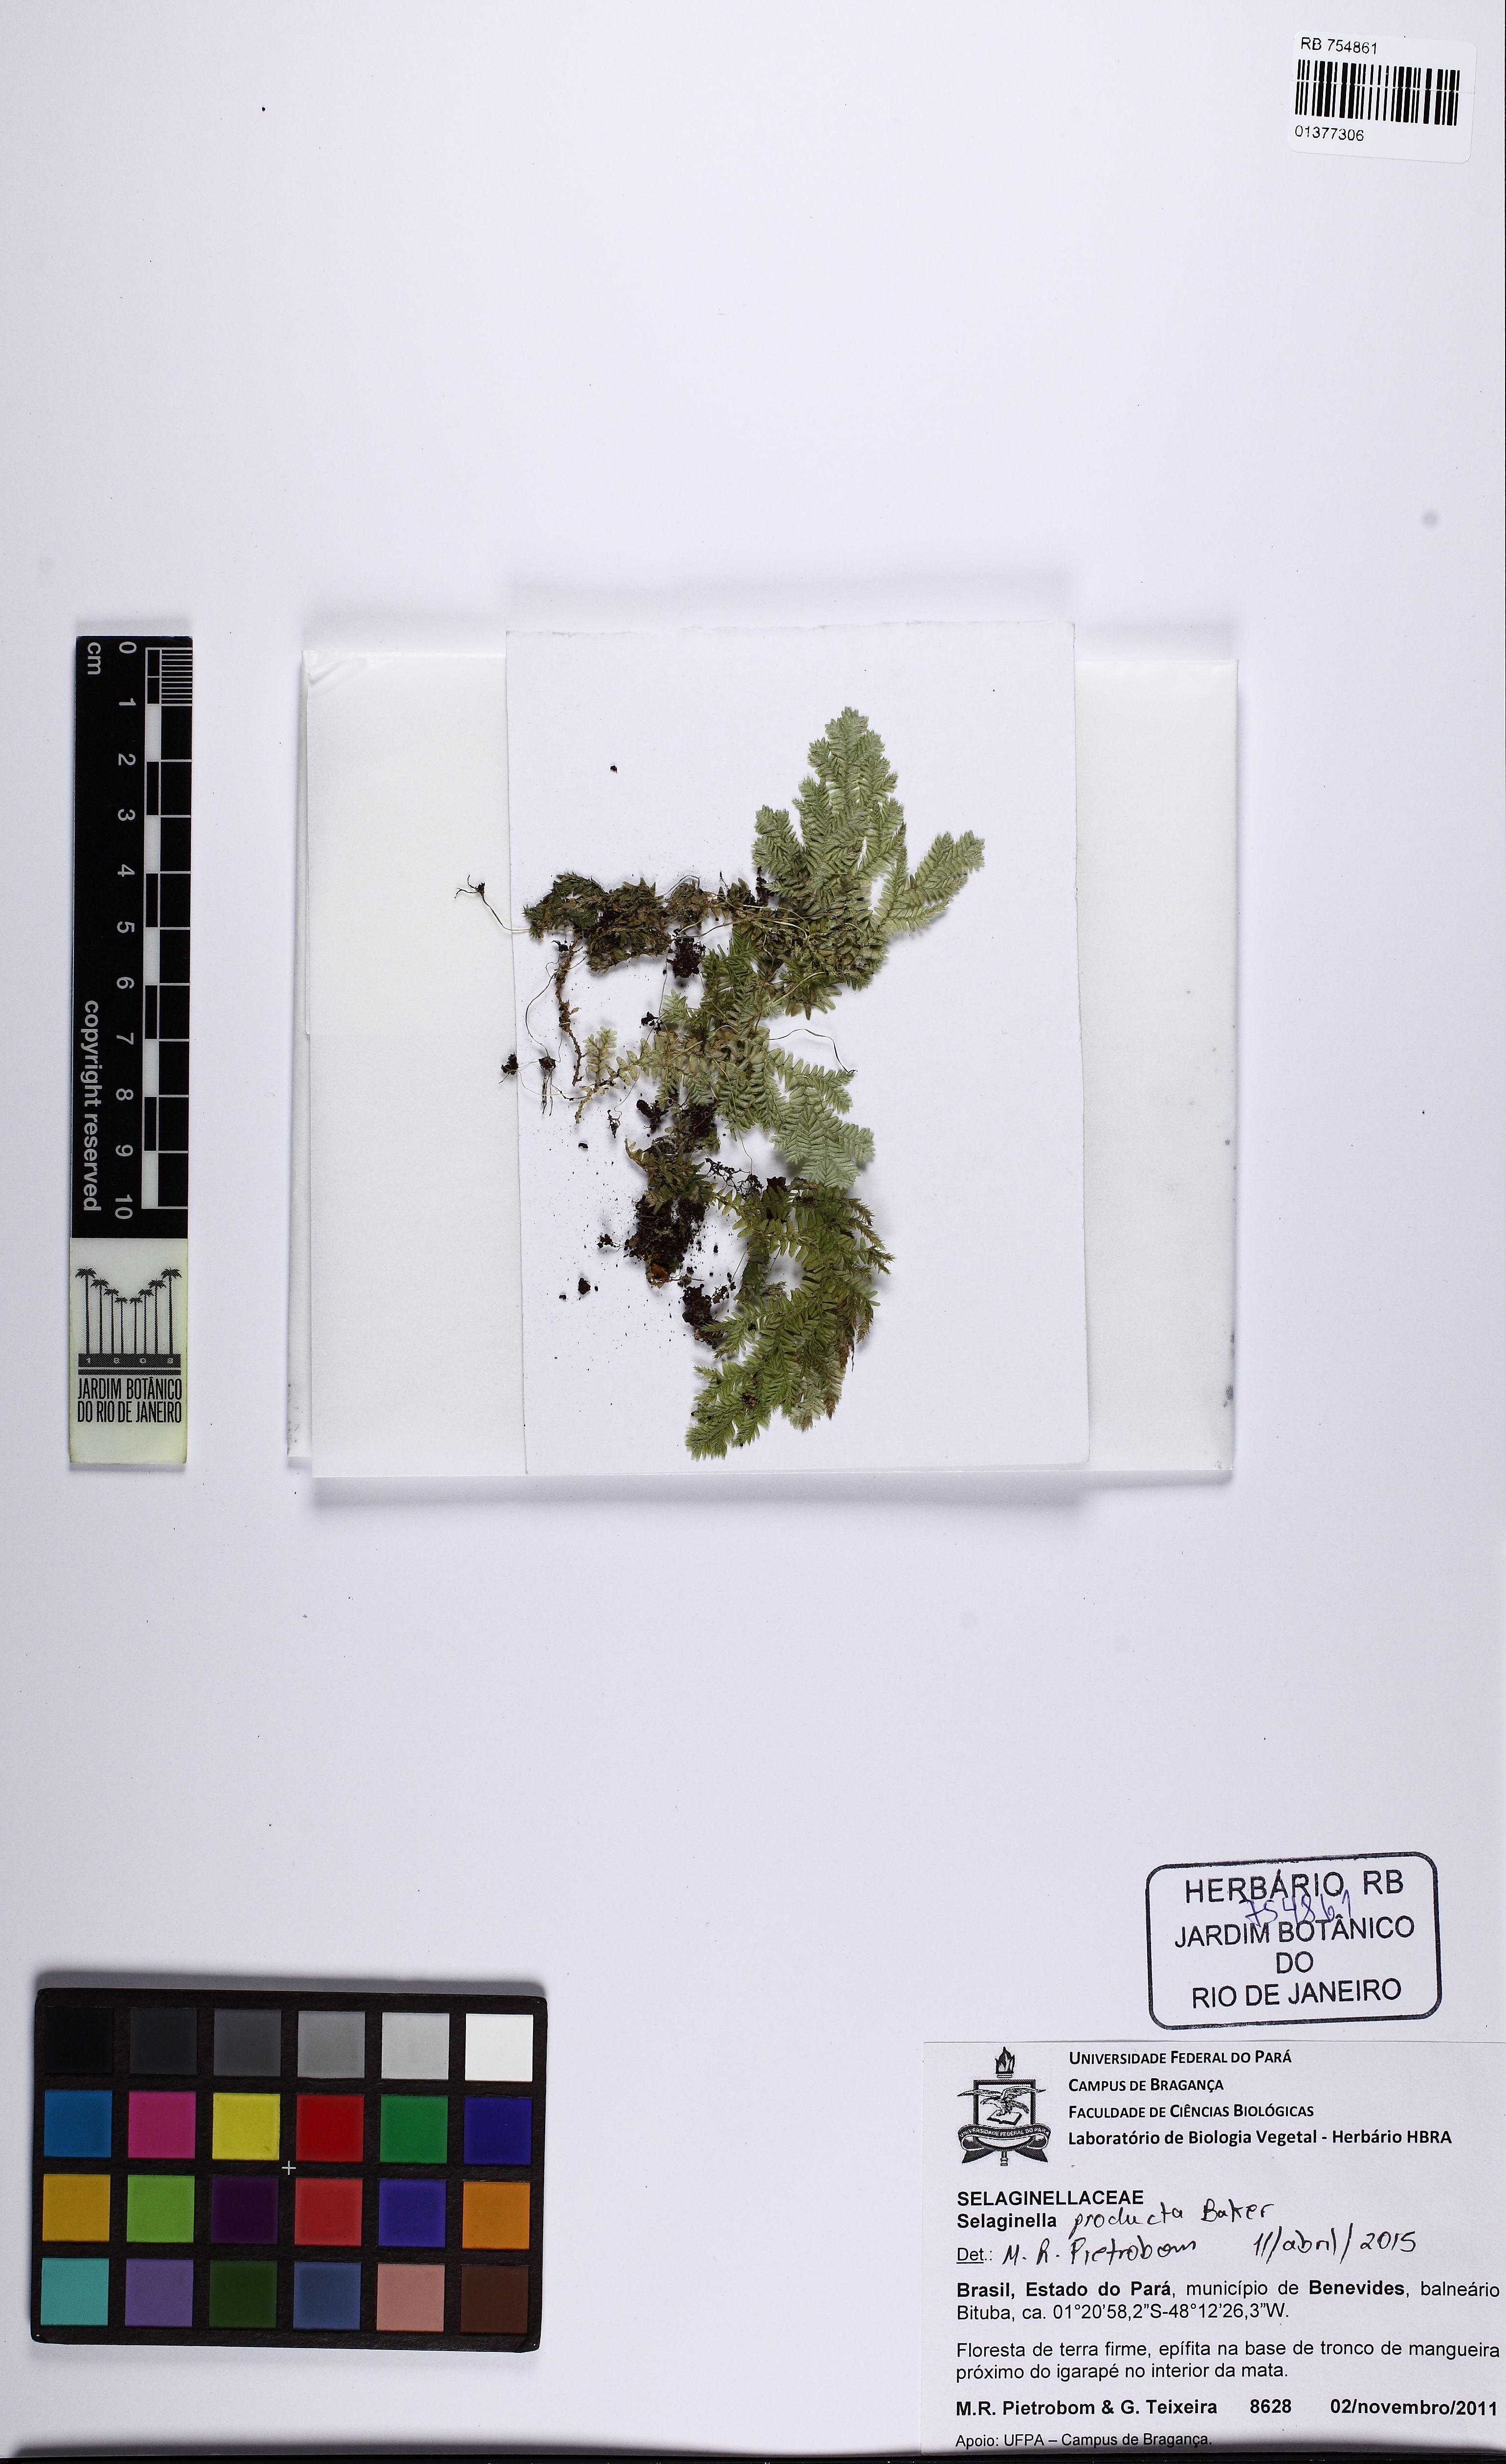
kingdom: Plantae
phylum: Tracheophyta
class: Lycopodiopsida
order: Selaginellales
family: Selaginellaceae
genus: Selaginella
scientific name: Selaginella producta
